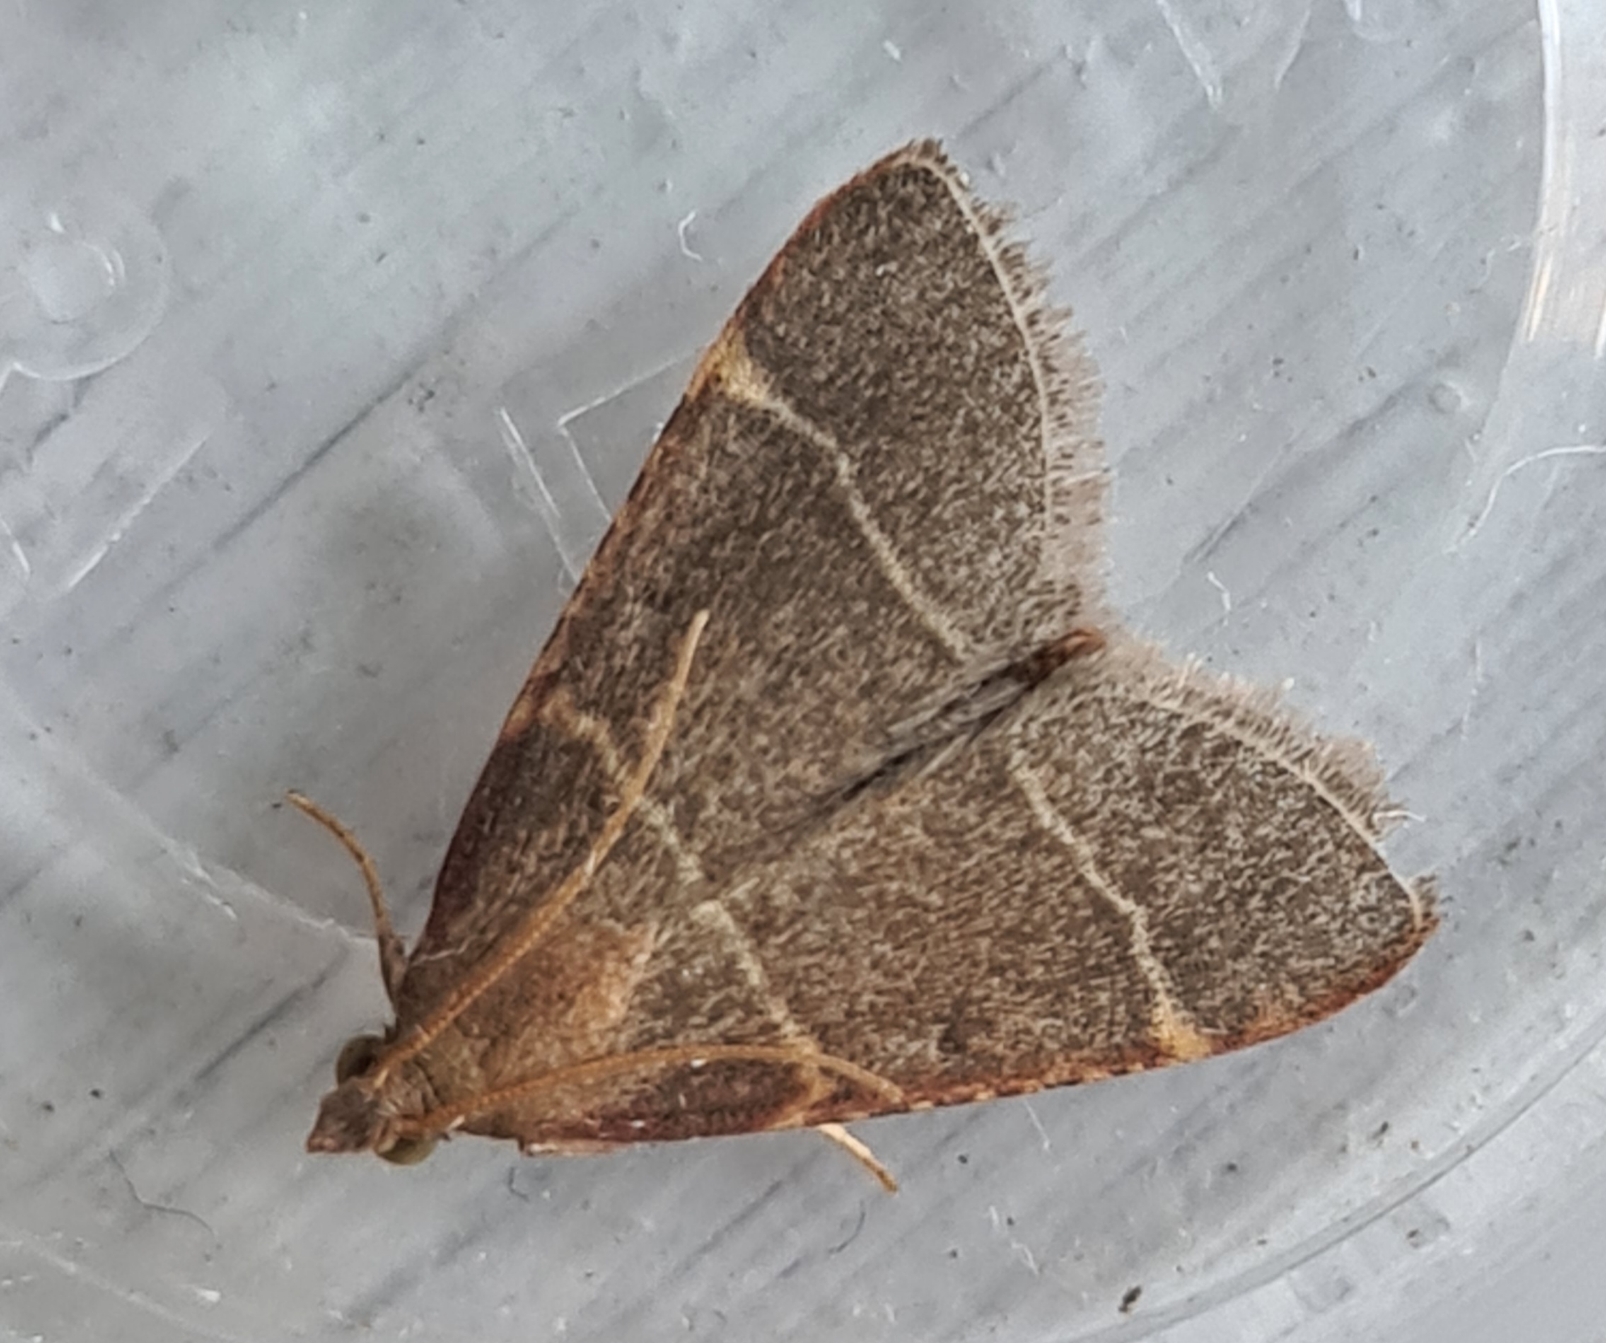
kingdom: Animalia
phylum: Arthropoda
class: Insecta
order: Lepidoptera
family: Pyralidae
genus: Hypsopygia
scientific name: Hypsopygia glaucinalis
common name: Blågråt herkuleshalvmøl
